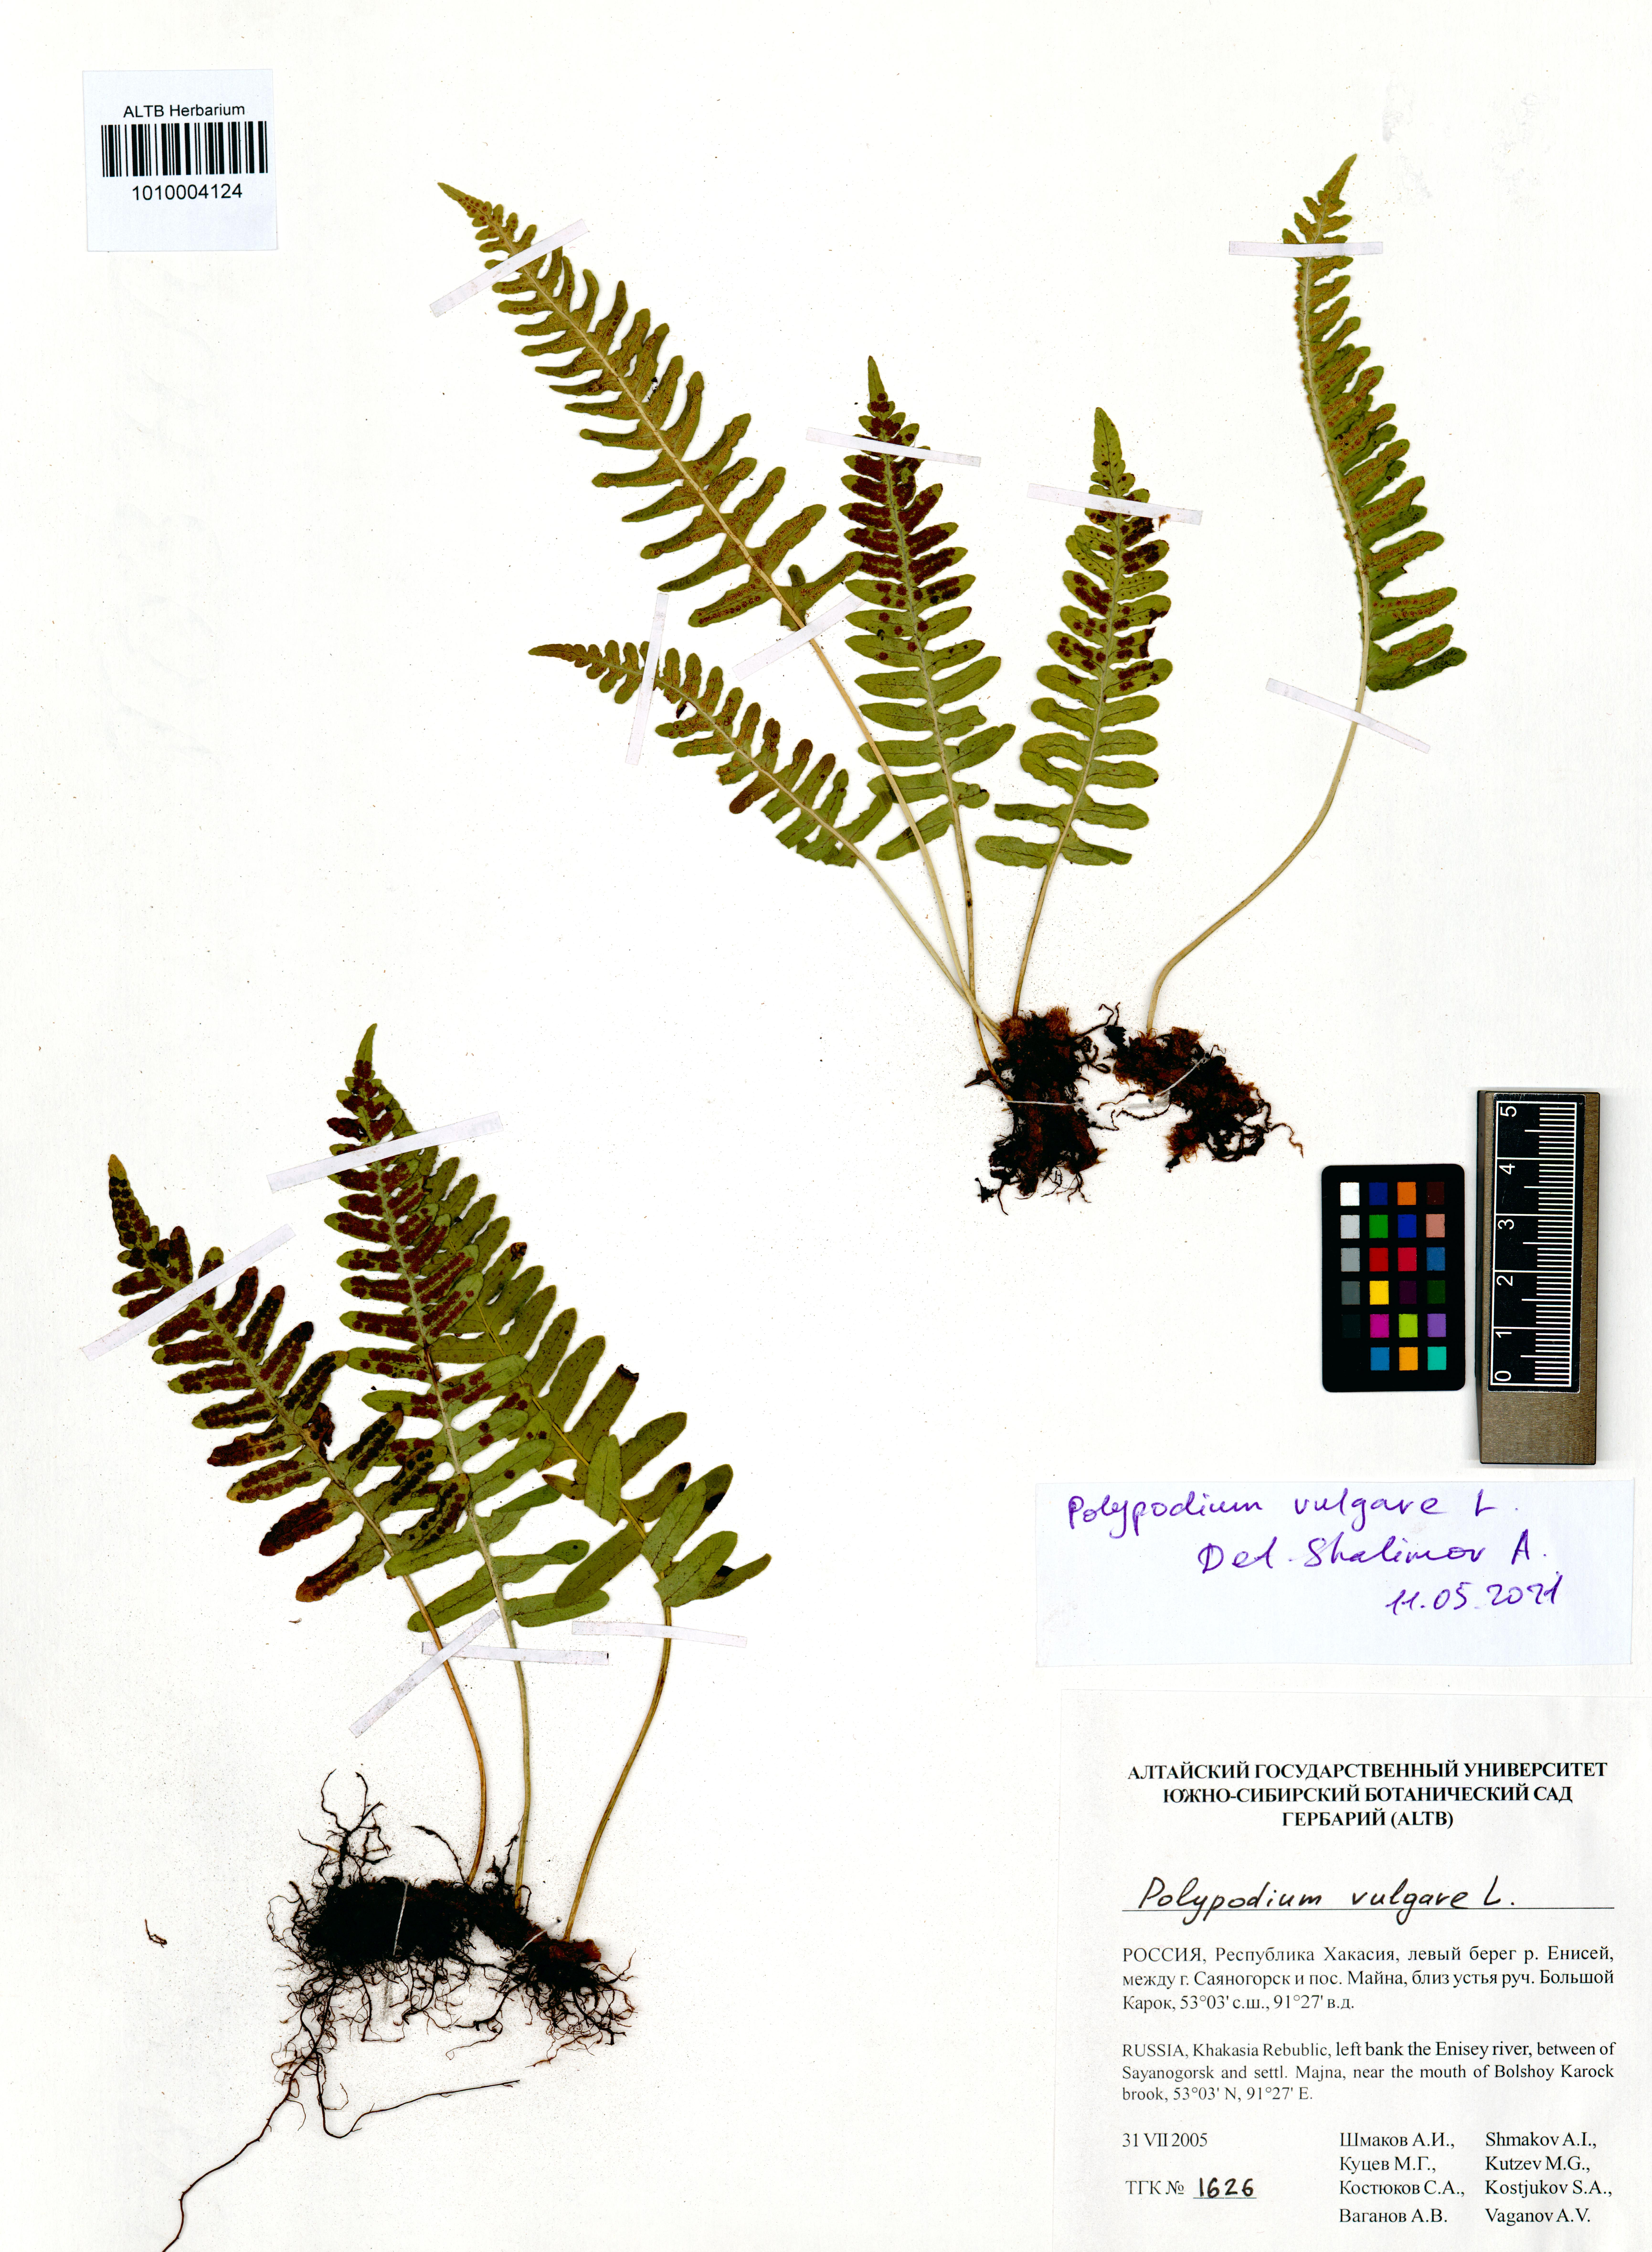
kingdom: Plantae
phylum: Tracheophyta
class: Polypodiopsida
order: Polypodiales
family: Polypodiaceae
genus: Polypodium
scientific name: Polypodium vulgare
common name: Common polypody
